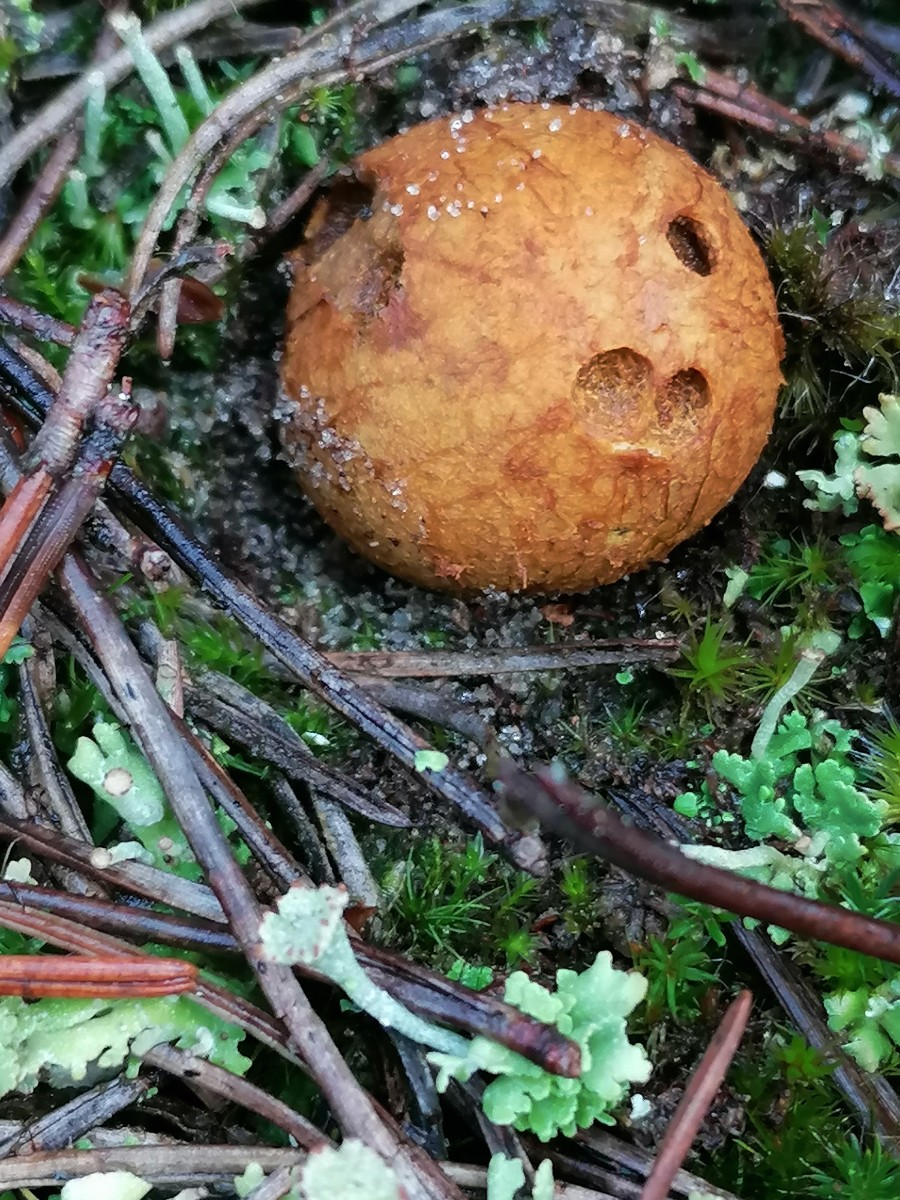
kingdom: Fungi
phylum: Basidiomycota
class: Agaricomycetes
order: Boletales
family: Rhizopogonaceae
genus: Rhizopogon
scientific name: Rhizopogon obtextus
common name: gul skægtrøffel
